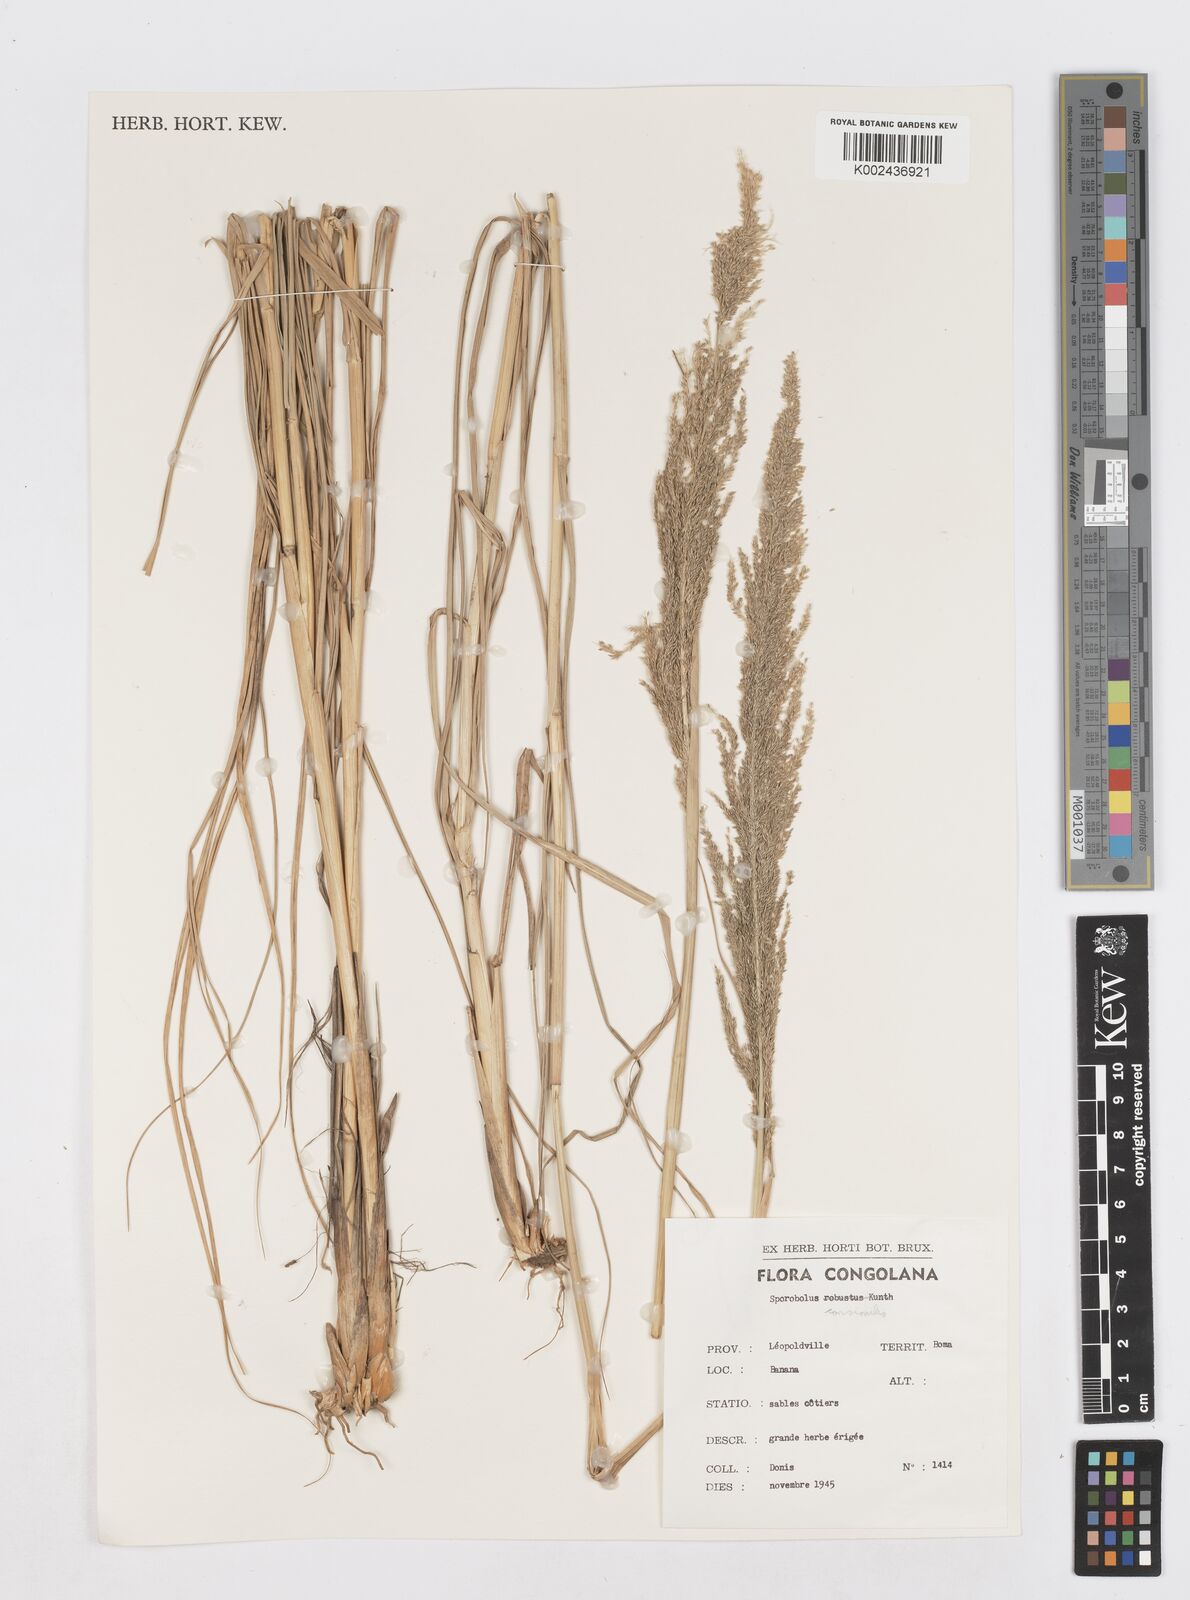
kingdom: Plantae
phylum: Tracheophyta
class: Liliopsida
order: Poales
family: Poaceae
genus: Sporobolus
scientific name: Sporobolus consimilis
